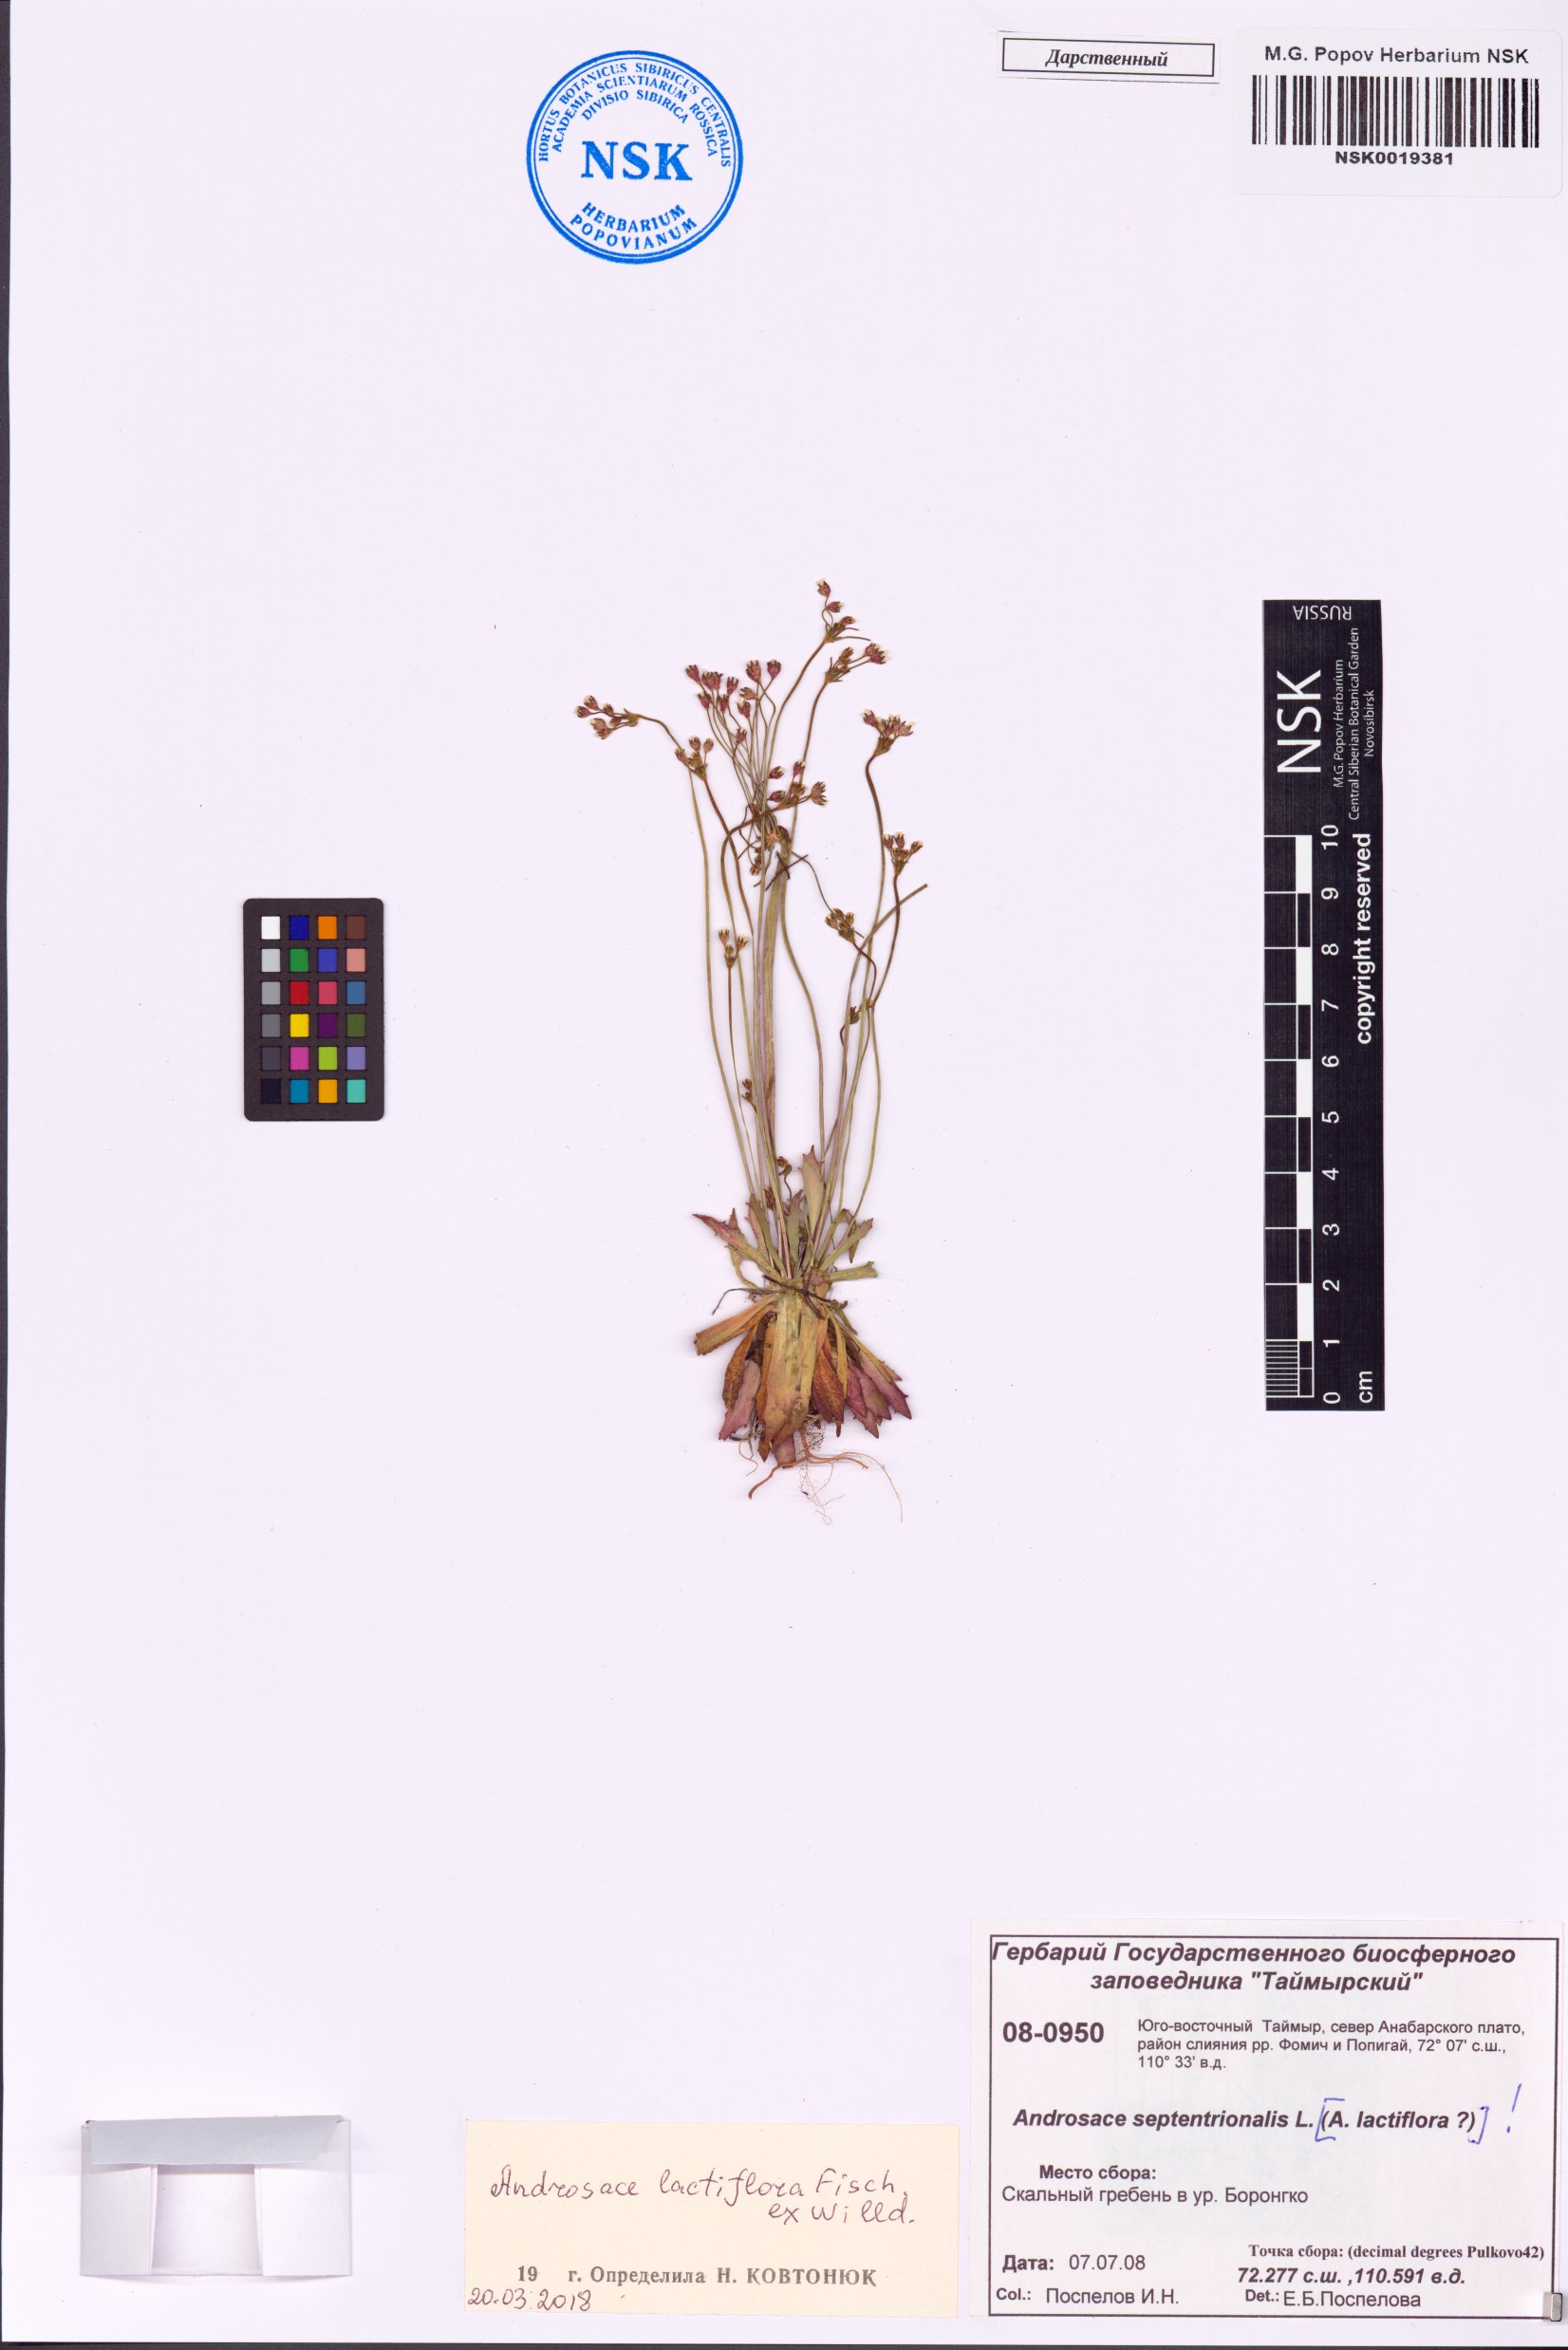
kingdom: Plantae
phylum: Tracheophyta
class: Magnoliopsida
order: Ericales
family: Primulaceae
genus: Androsace
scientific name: Androsace lactiflora
